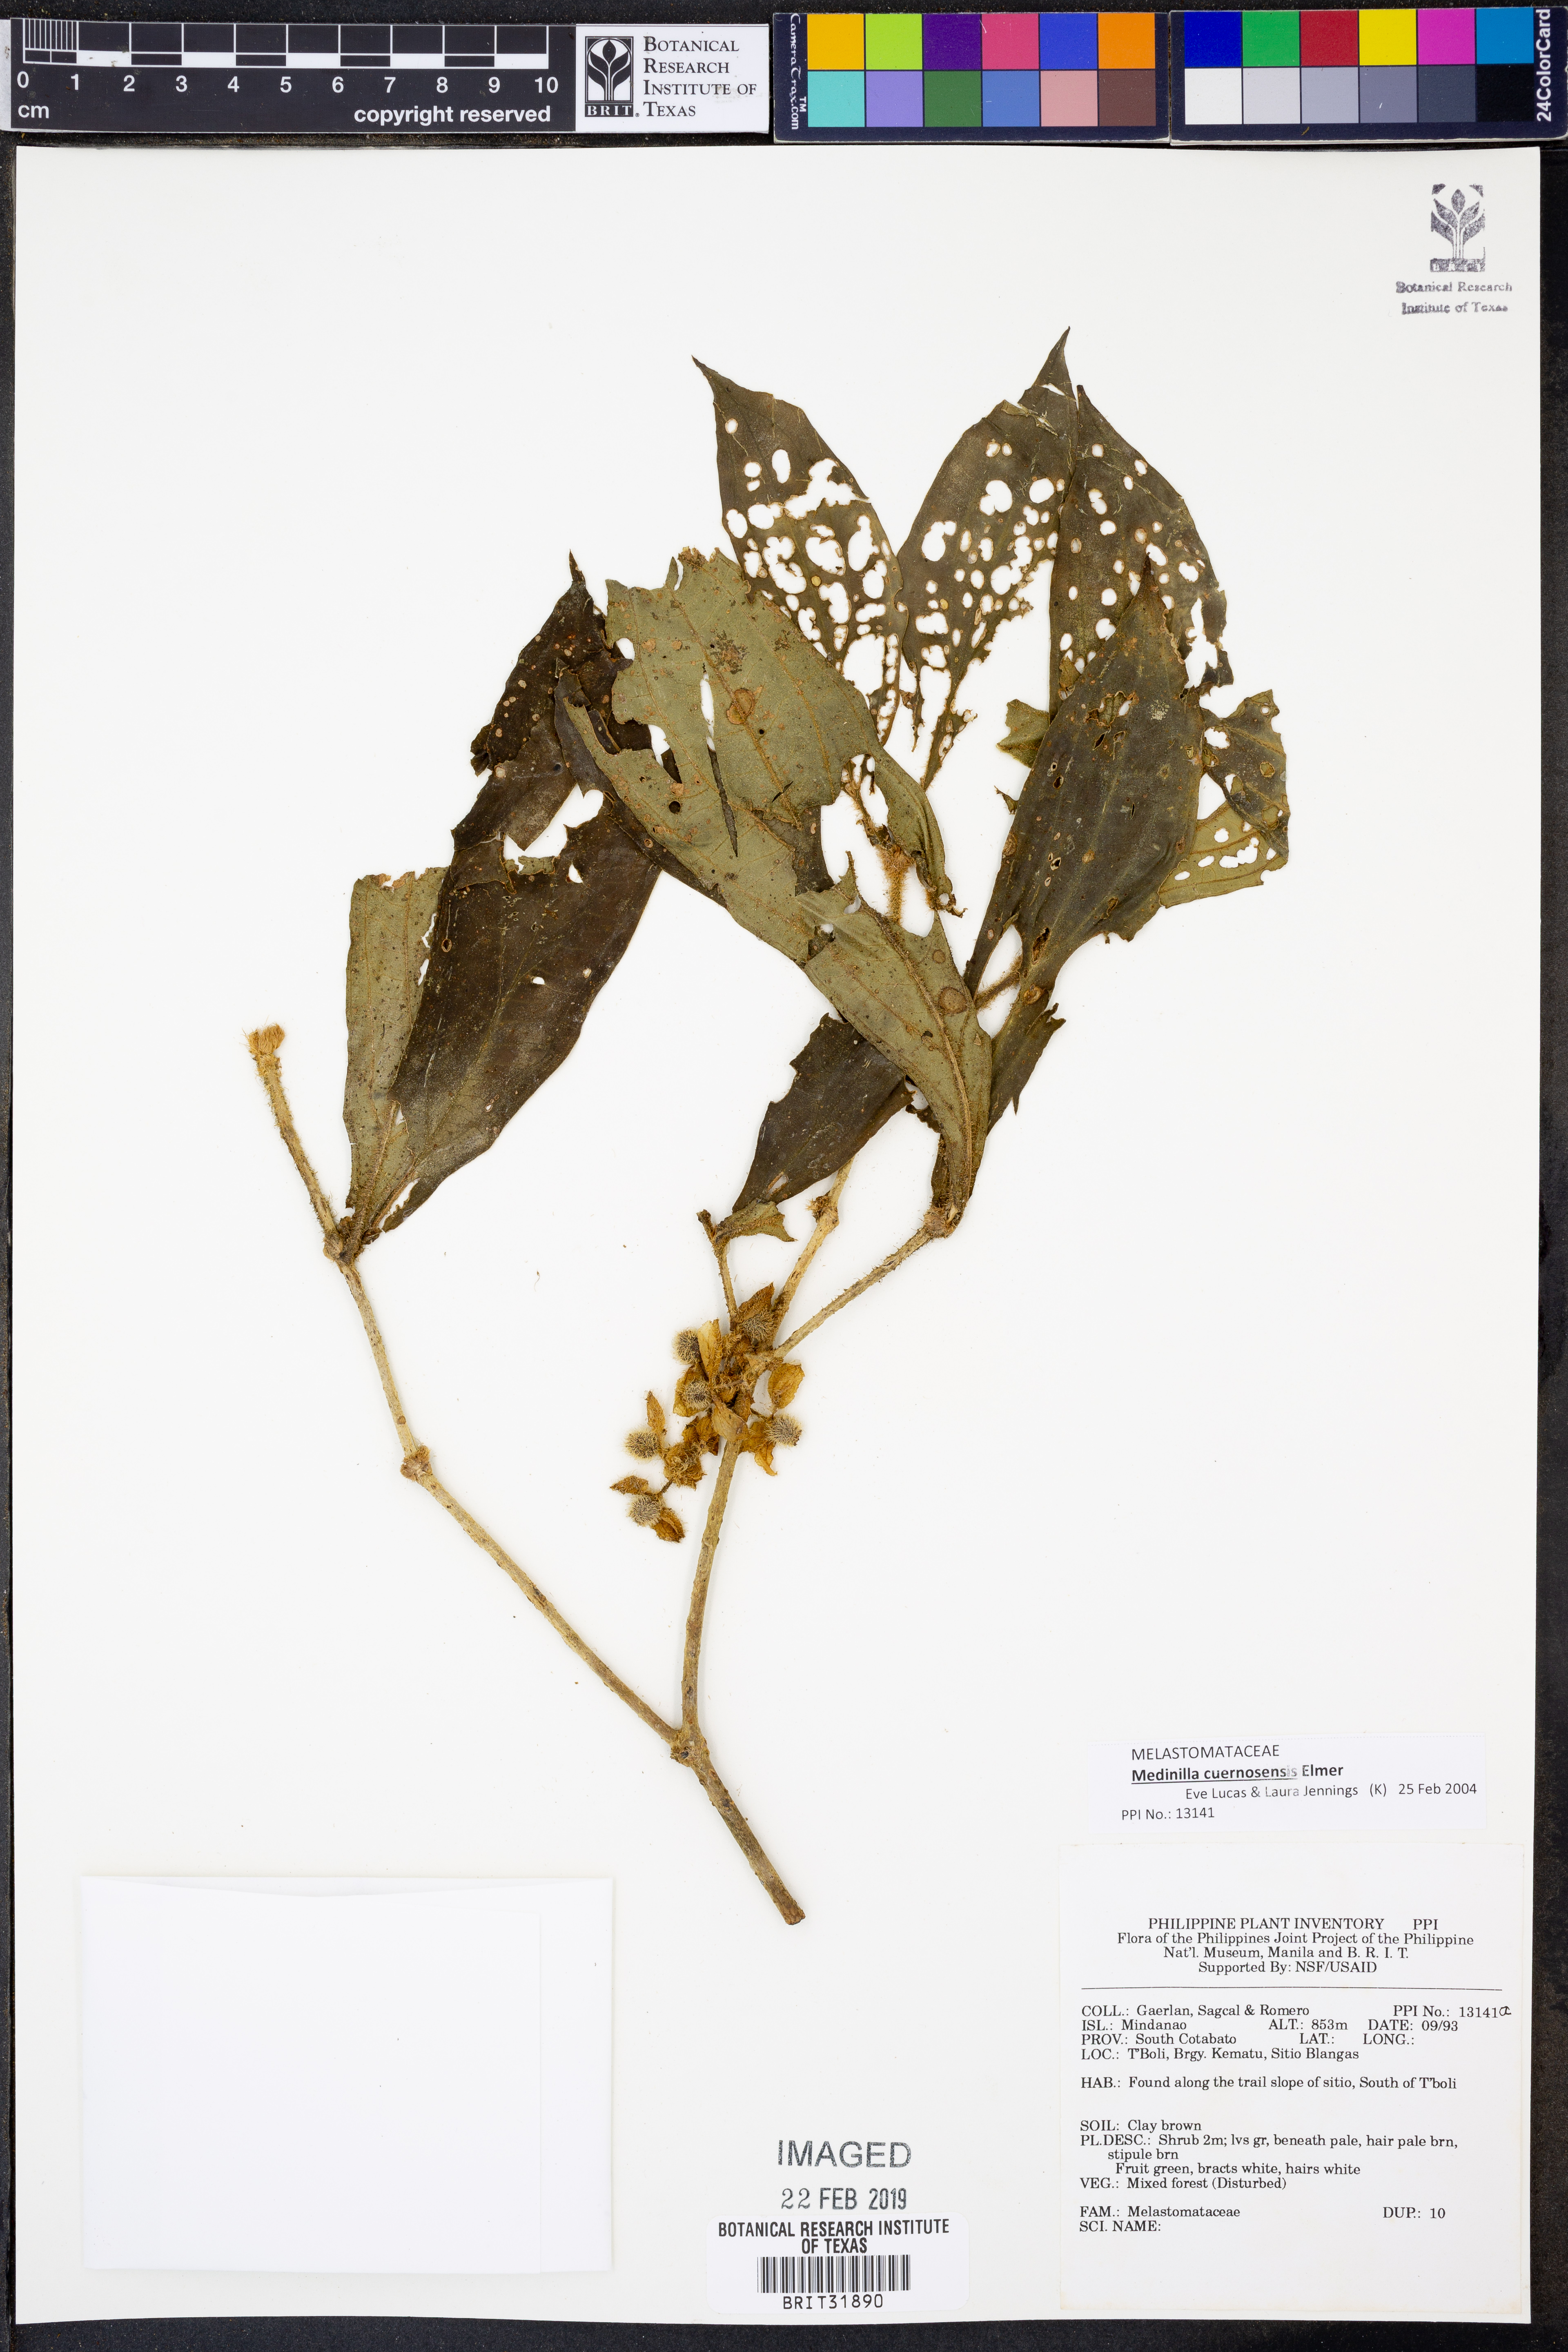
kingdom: Plantae
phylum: Tracheophyta
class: Magnoliopsida
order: Myrtales
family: Melastomataceae
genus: Medinilla
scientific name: Medinilla cuernosensis
